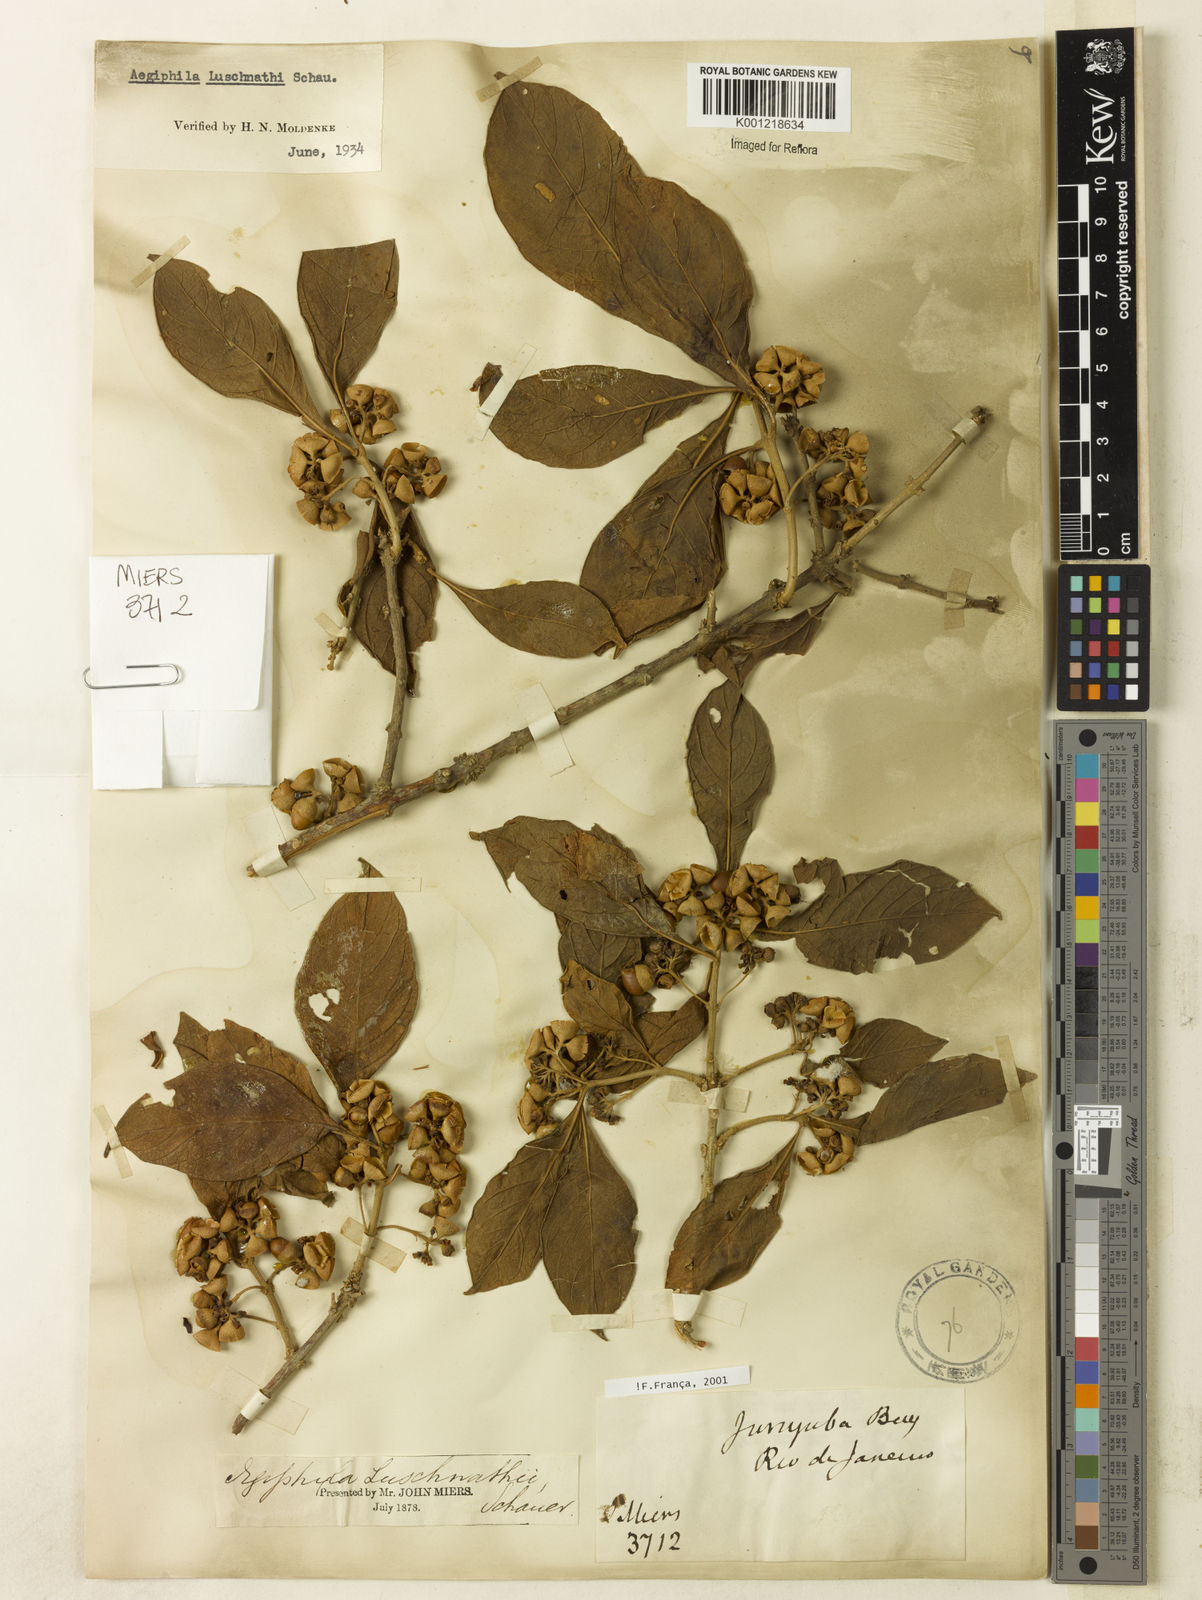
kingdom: Plantae
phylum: Tracheophyta
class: Magnoliopsida
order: Lamiales
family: Lamiaceae
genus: Aegiphila
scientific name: Aegiphila luschnathii
